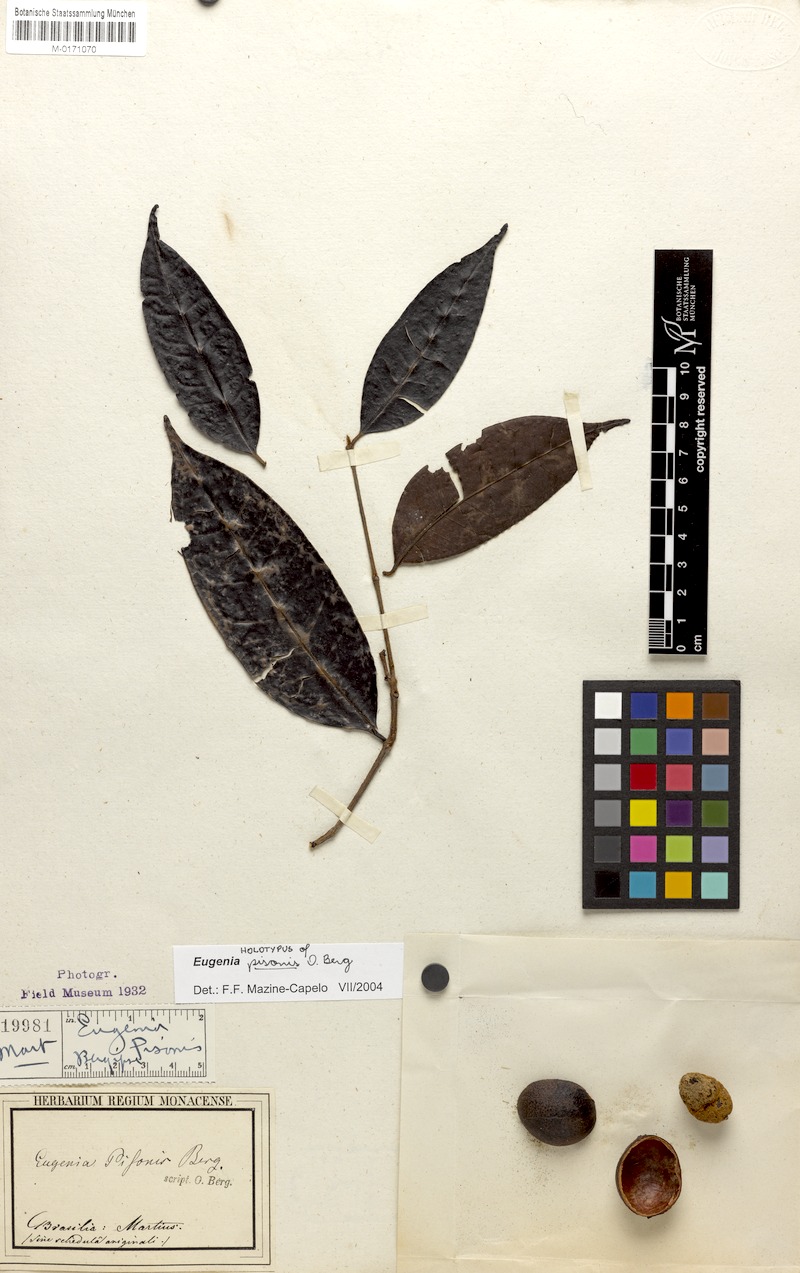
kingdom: Plantae
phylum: Tracheophyta
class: Magnoliopsida
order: Myrtales
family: Myrtaceae
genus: Eugenia
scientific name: Eugenia moschata
